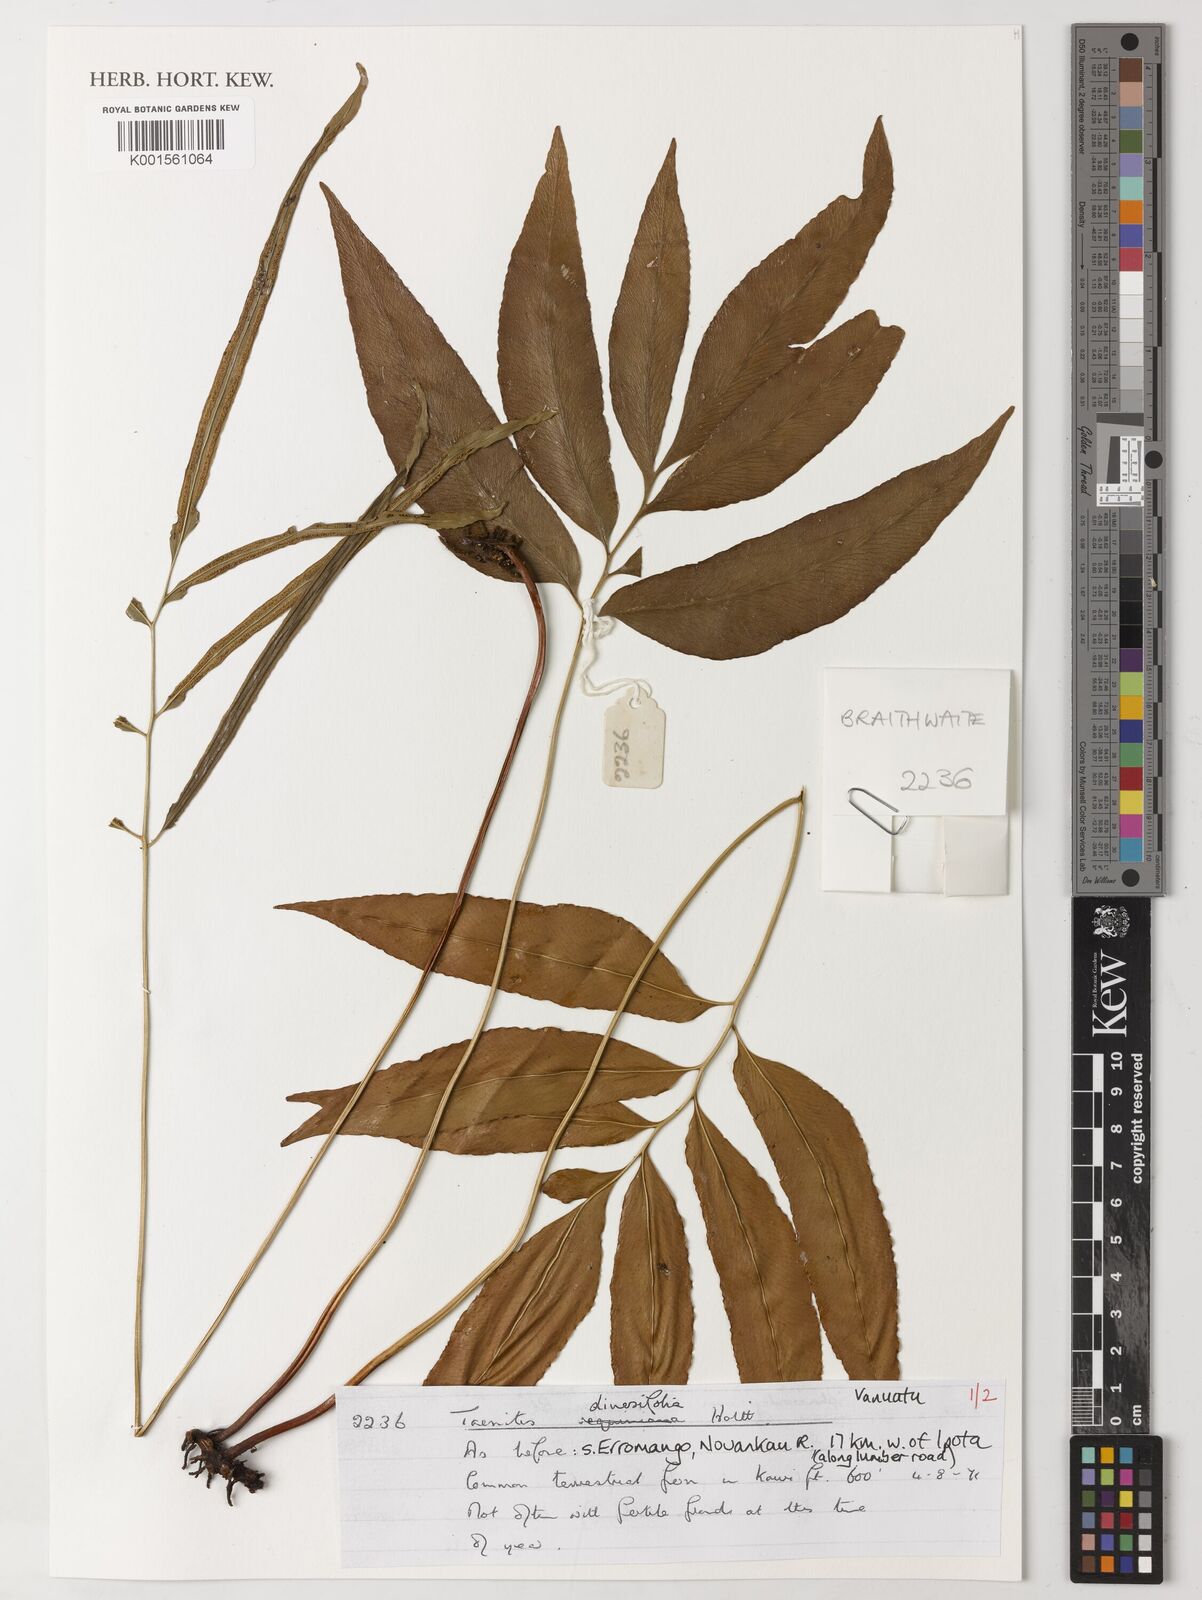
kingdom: Plantae
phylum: Tracheophyta
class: Polypodiopsida
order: Polypodiales
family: Pteridaceae
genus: Taenitis
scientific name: Taenitis diversifolia
